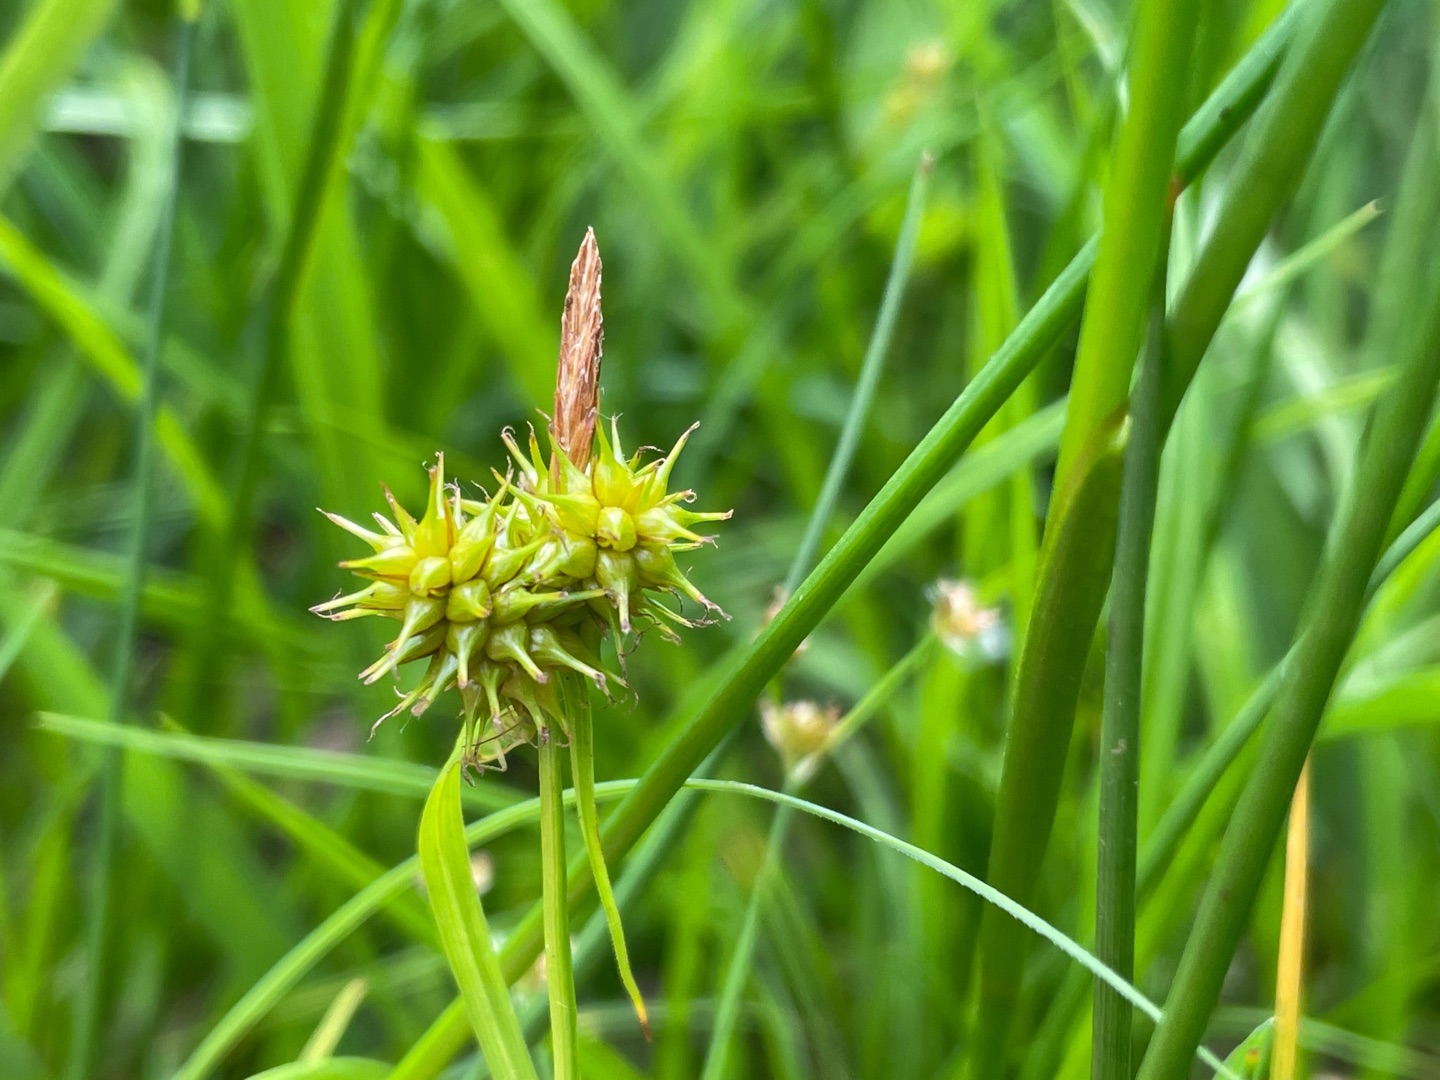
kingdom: Plantae
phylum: Tracheophyta
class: Liliopsida
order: Poales
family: Cyperaceae
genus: Carex
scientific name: Carex flava
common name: Gul star
